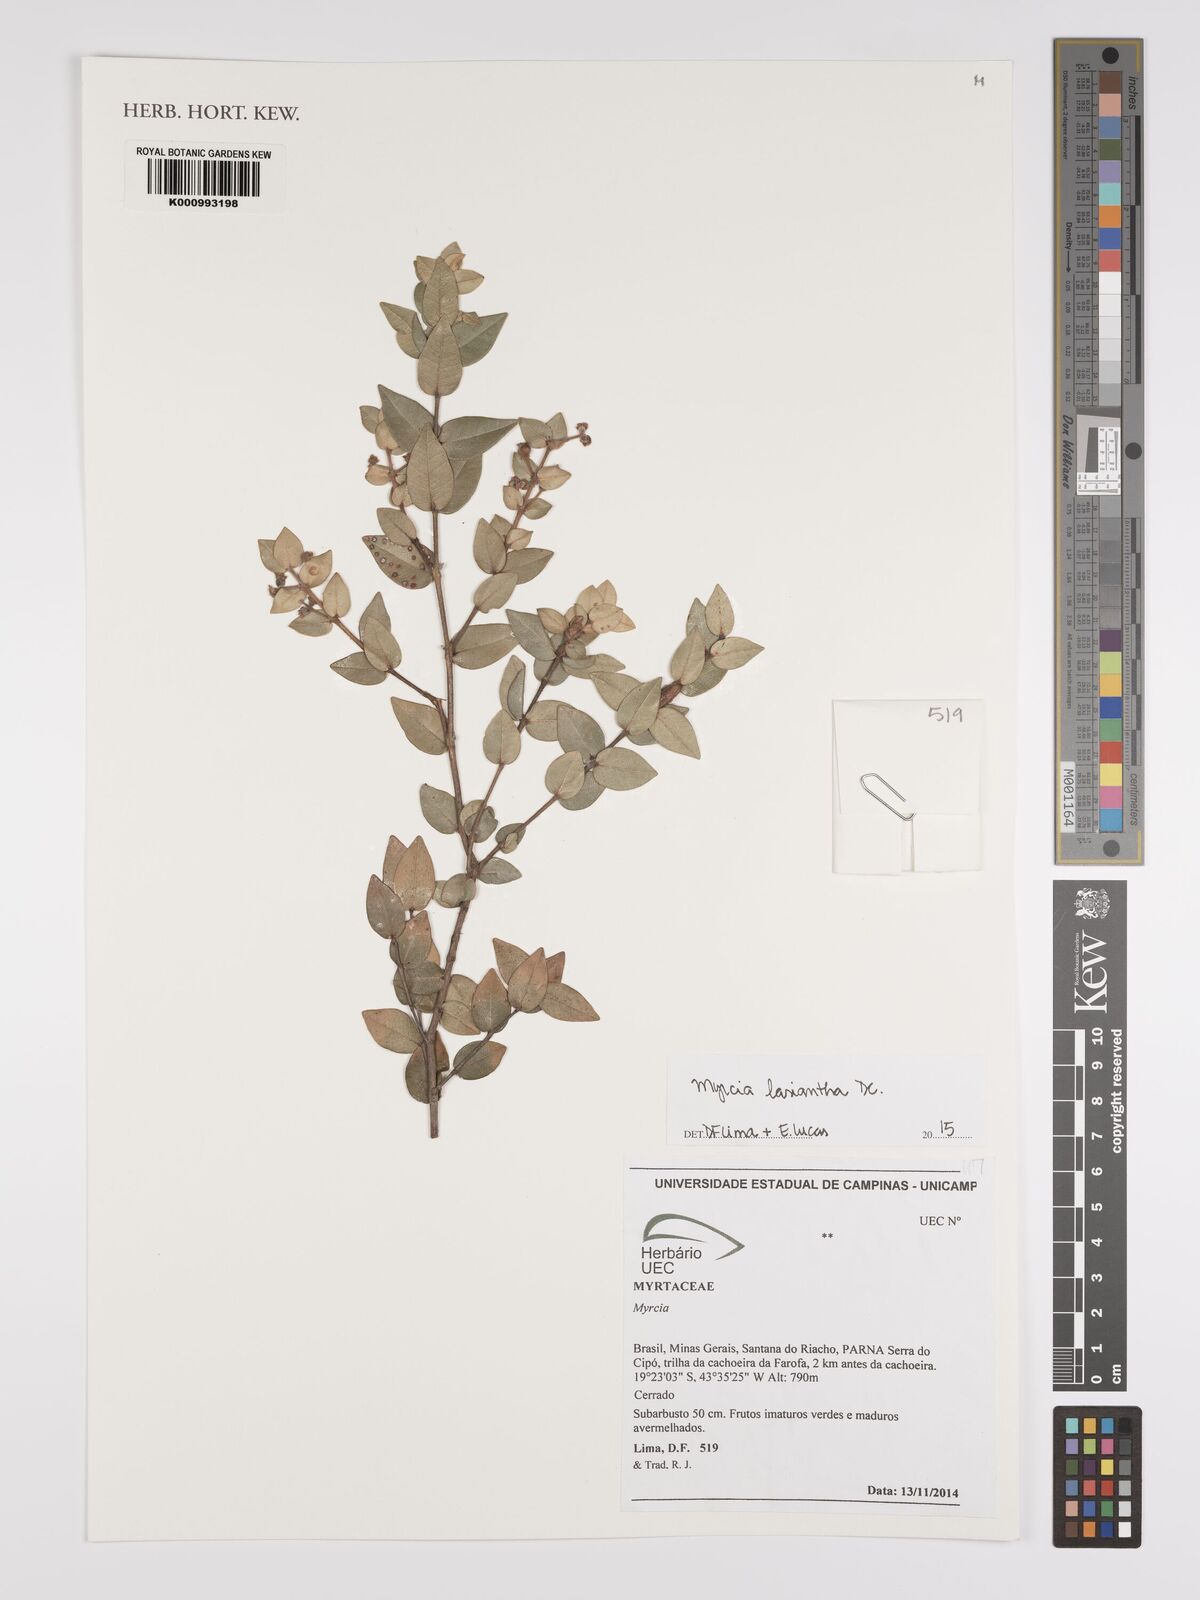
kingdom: Plantae
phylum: Tracheophyta
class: Magnoliopsida
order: Myrtales
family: Myrtaceae
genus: Myrcia
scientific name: Myrcia lasiantha
